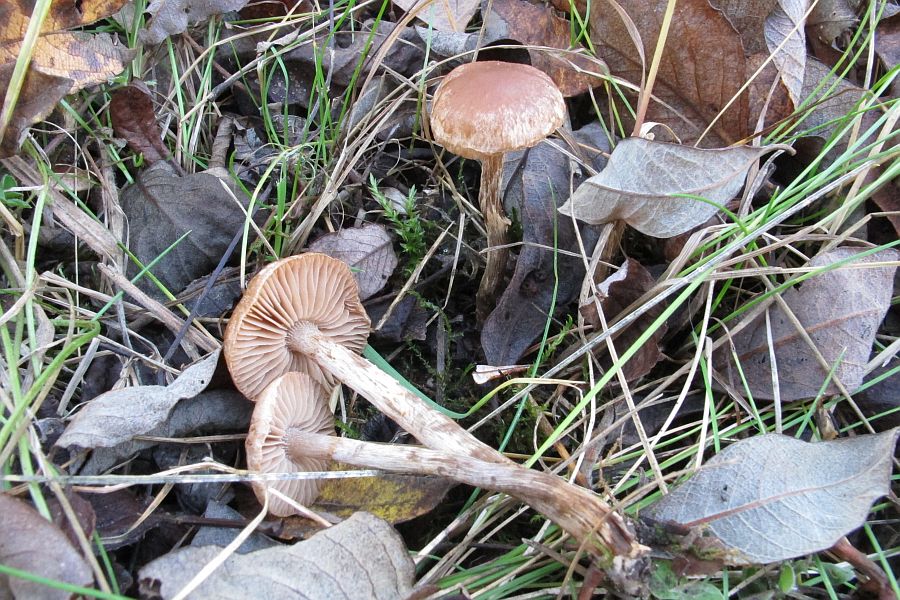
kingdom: Fungi
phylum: Basidiomycota
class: Agaricomycetes
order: Agaricales
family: Hymenogastraceae
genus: Hebeloma
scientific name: Hebeloma velatum
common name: knippe-tåreblad
